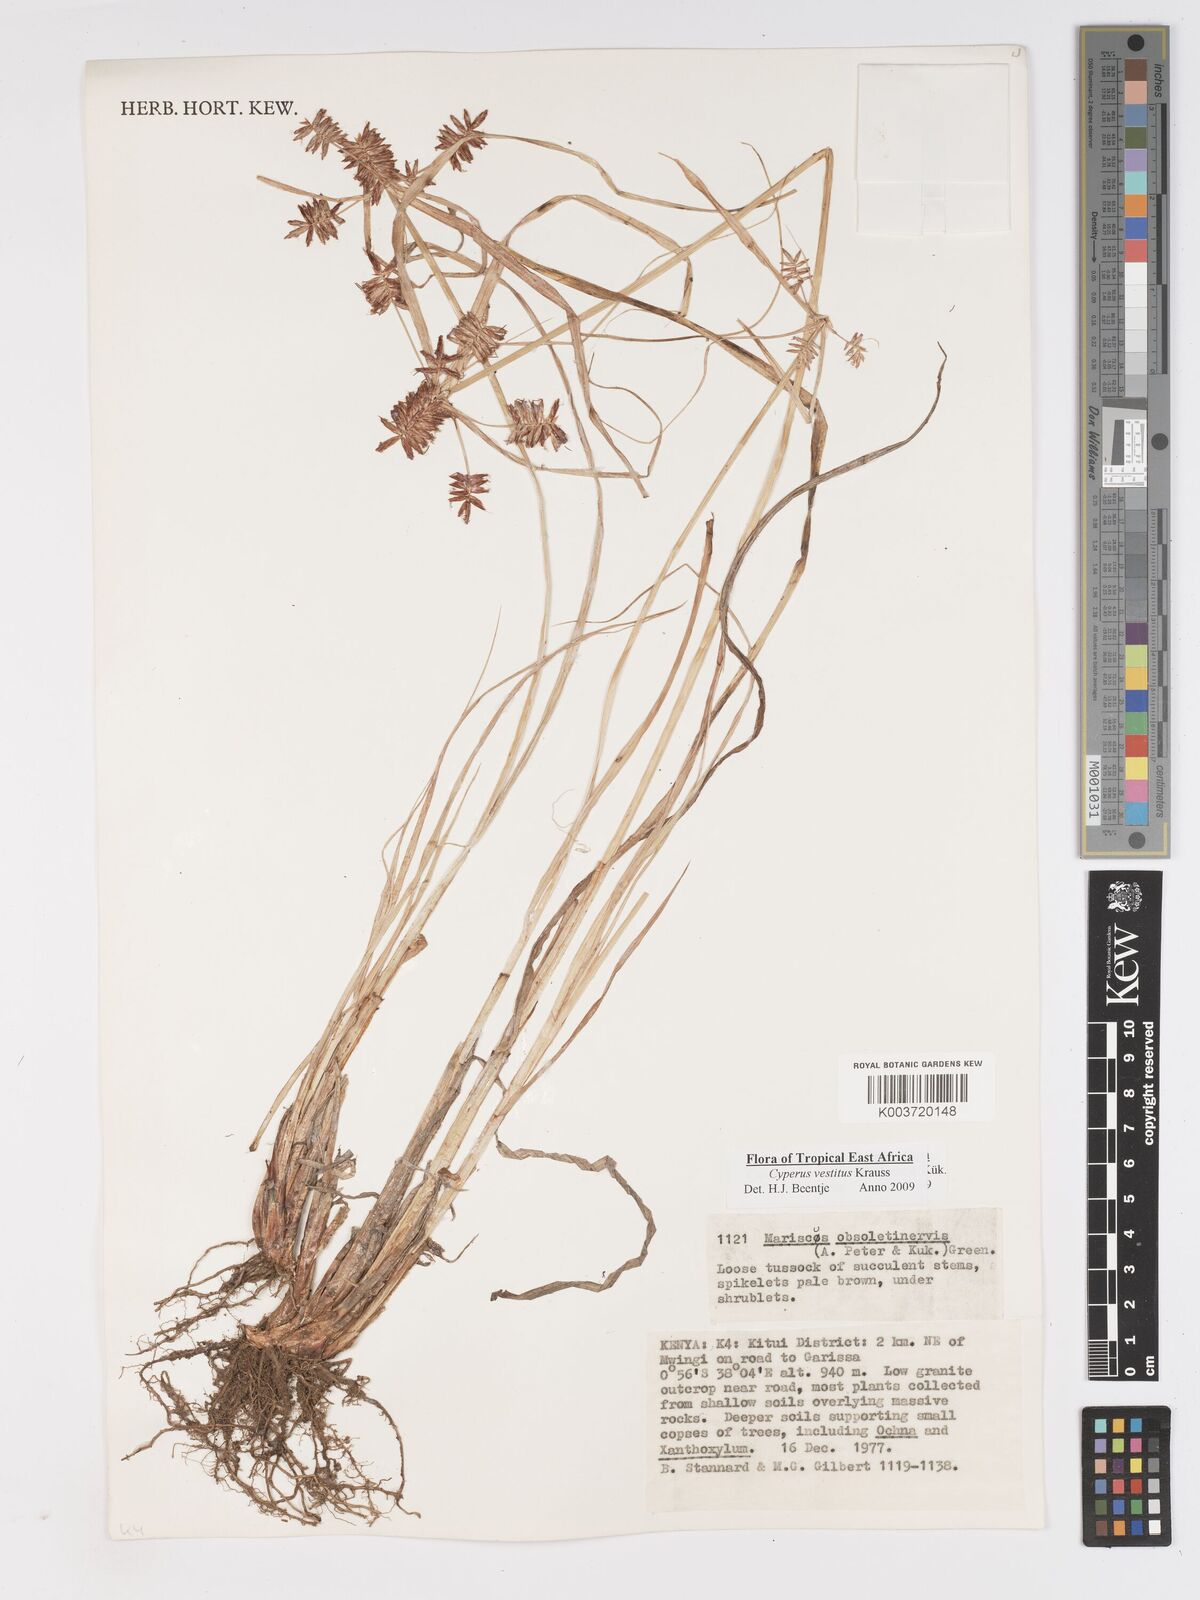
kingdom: Plantae
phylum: Tracheophyta
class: Liliopsida
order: Poales
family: Cyperaceae
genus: Cyperus
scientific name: Cyperus vestitus
